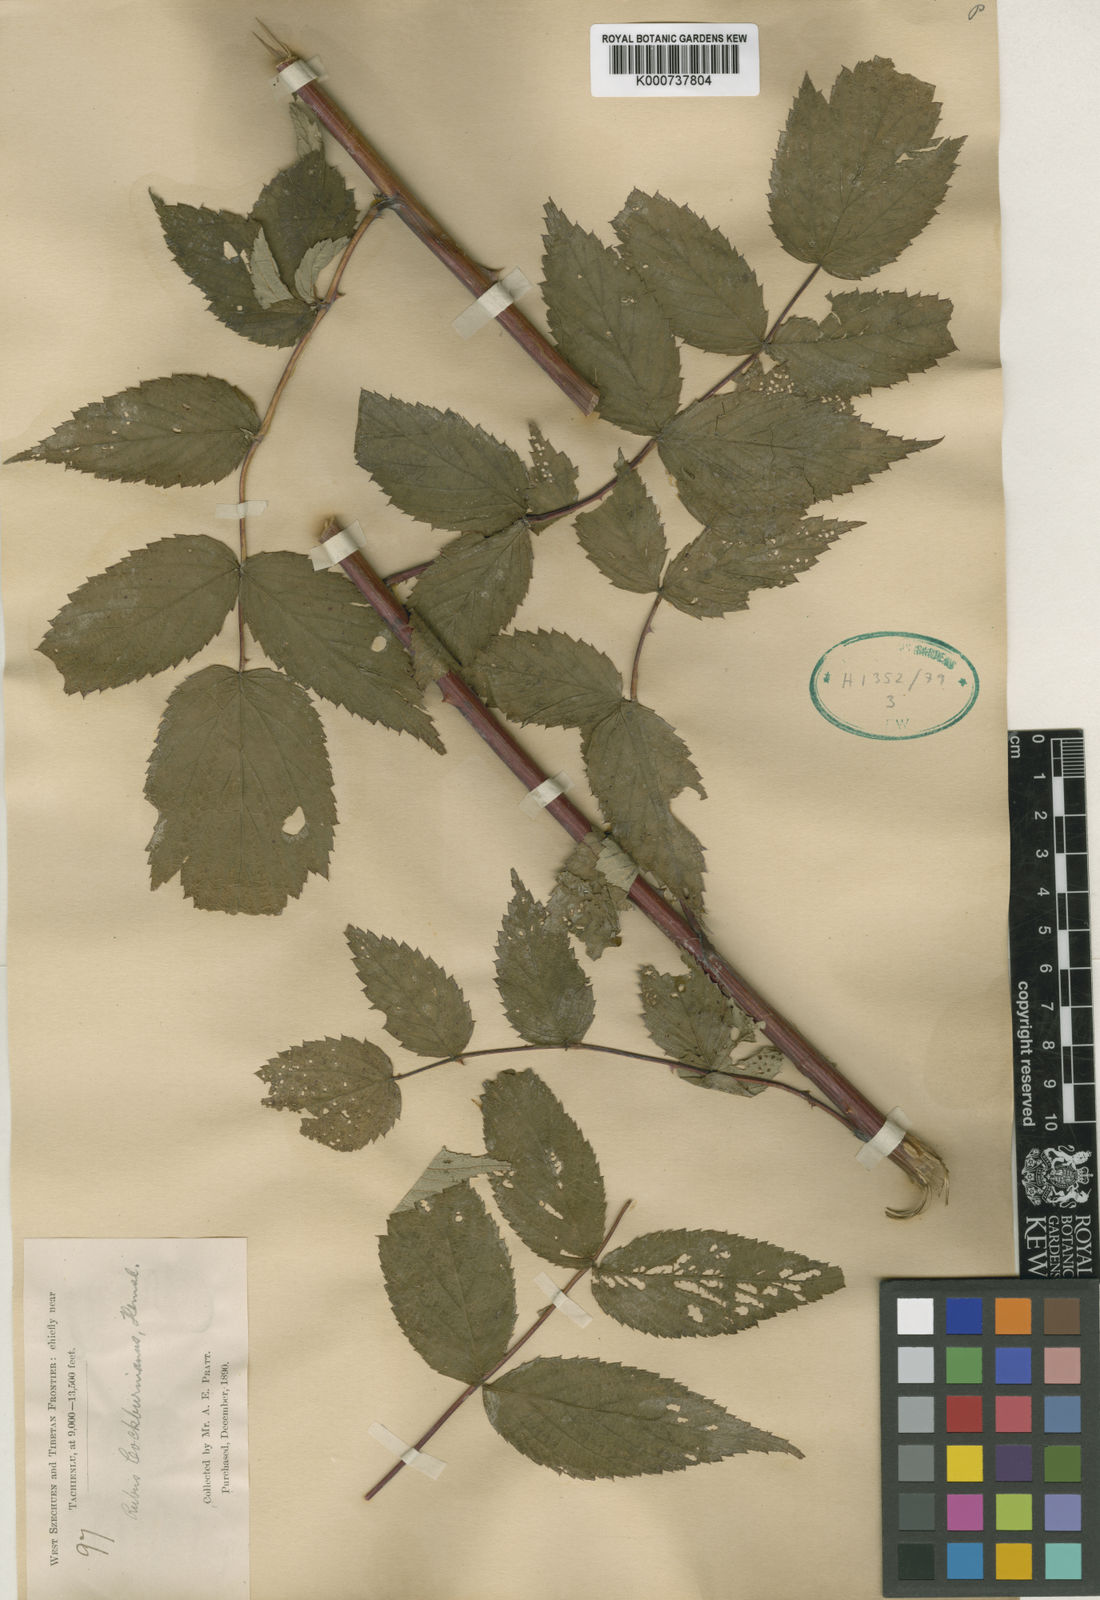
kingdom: Plantae
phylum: Tracheophyta
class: Magnoliopsida
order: Rosales
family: Rosaceae
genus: Rubus
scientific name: Rubus cockburnianus
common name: White-stemmed bramble
